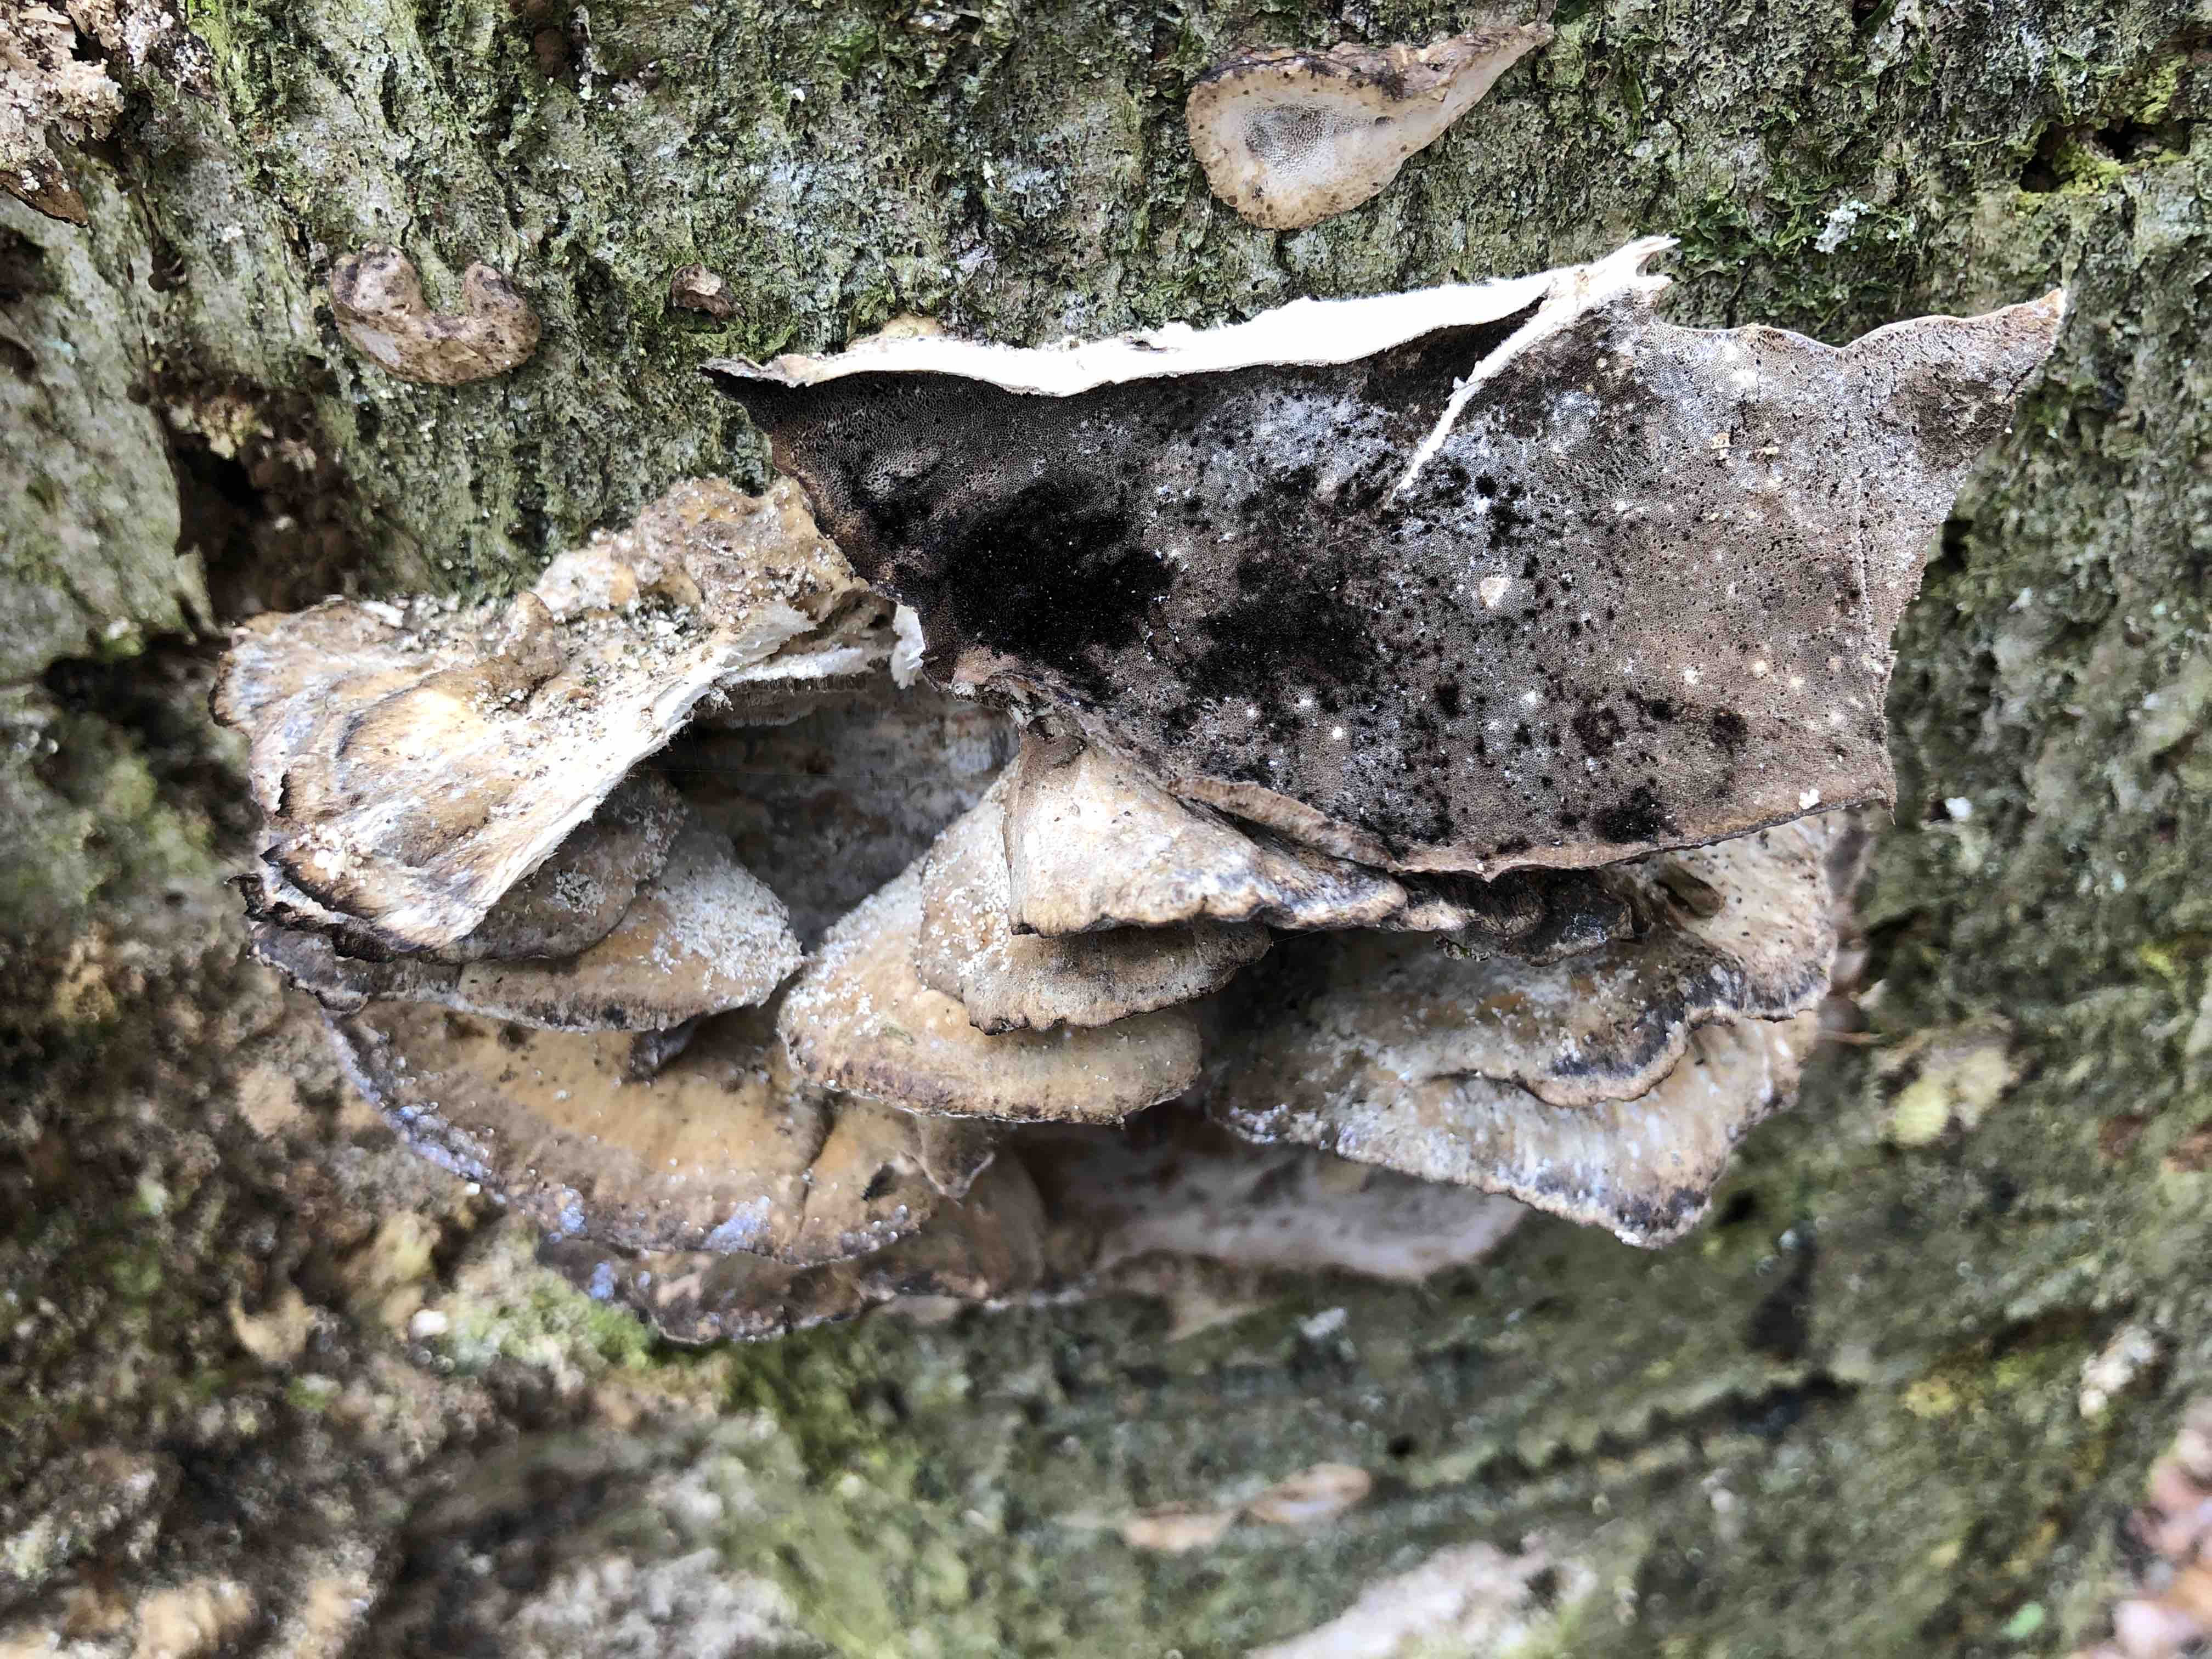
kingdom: Fungi
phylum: Basidiomycota
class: Agaricomycetes
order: Polyporales
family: Phanerochaetaceae
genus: Bjerkandera
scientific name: Bjerkandera adusta
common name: sveden sodporesvamp
